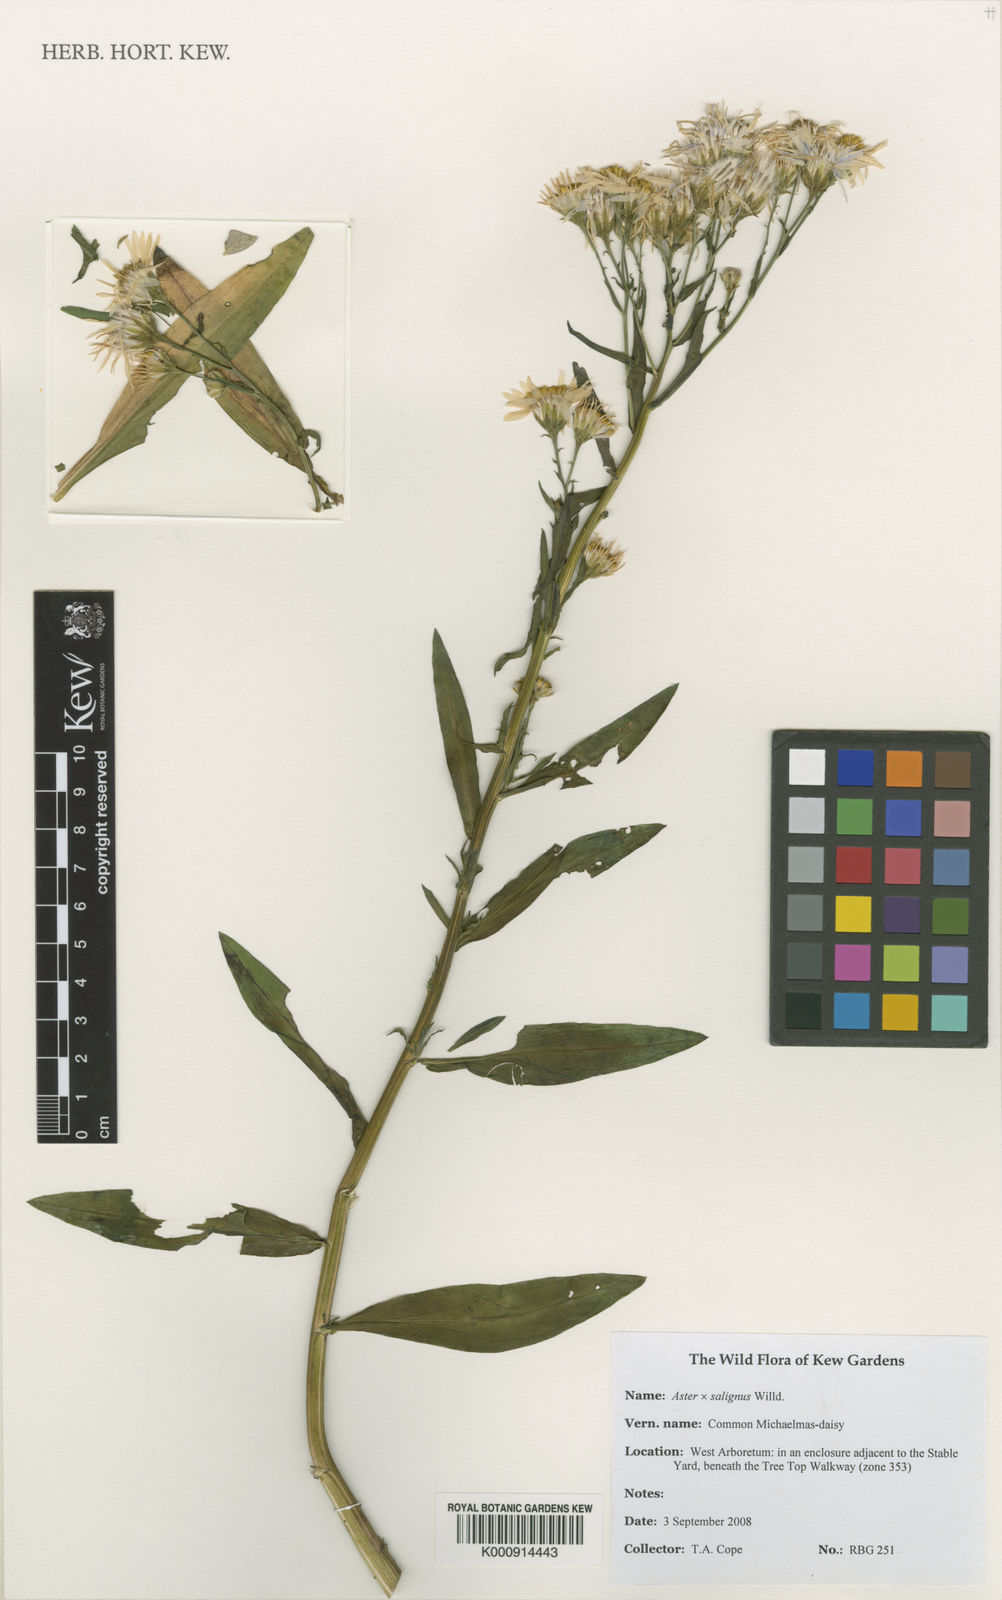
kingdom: Plantae
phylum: Tracheophyta
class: Magnoliopsida
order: Asterales
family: Asteraceae
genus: Symphyotrichum
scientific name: Symphyotrichum salignum
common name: Common michaelmas daisy
